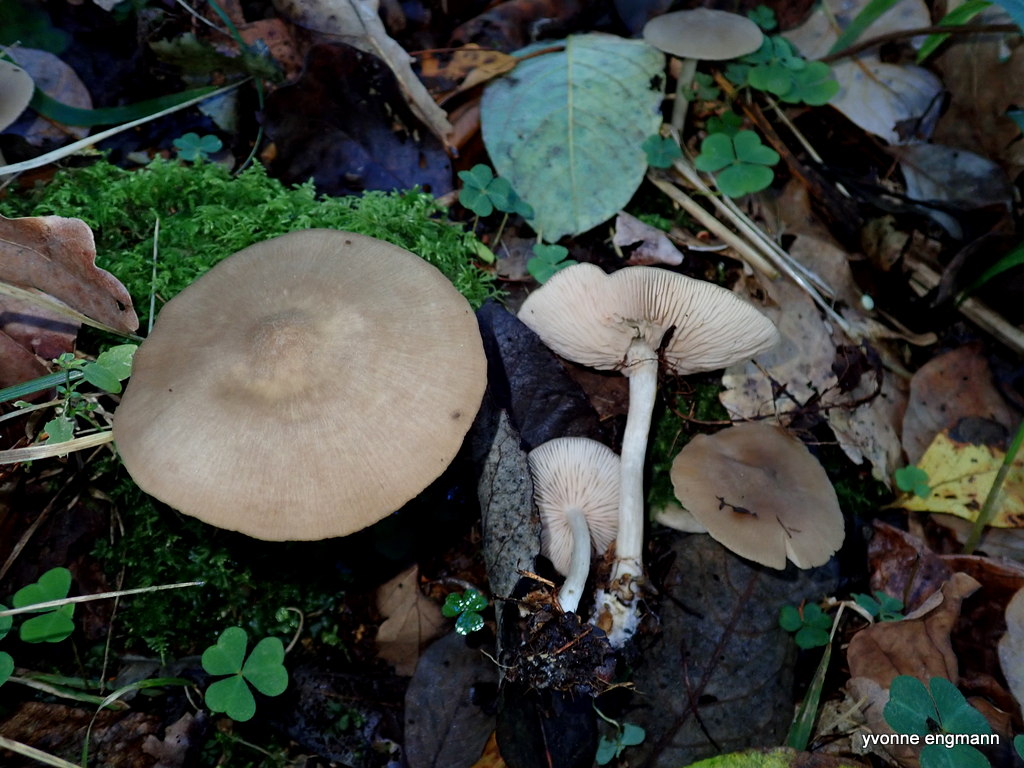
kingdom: Fungi
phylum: Basidiomycota
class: Agaricomycetes
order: Agaricales
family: Entolomataceae
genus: Entoloma
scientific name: Entoloma
